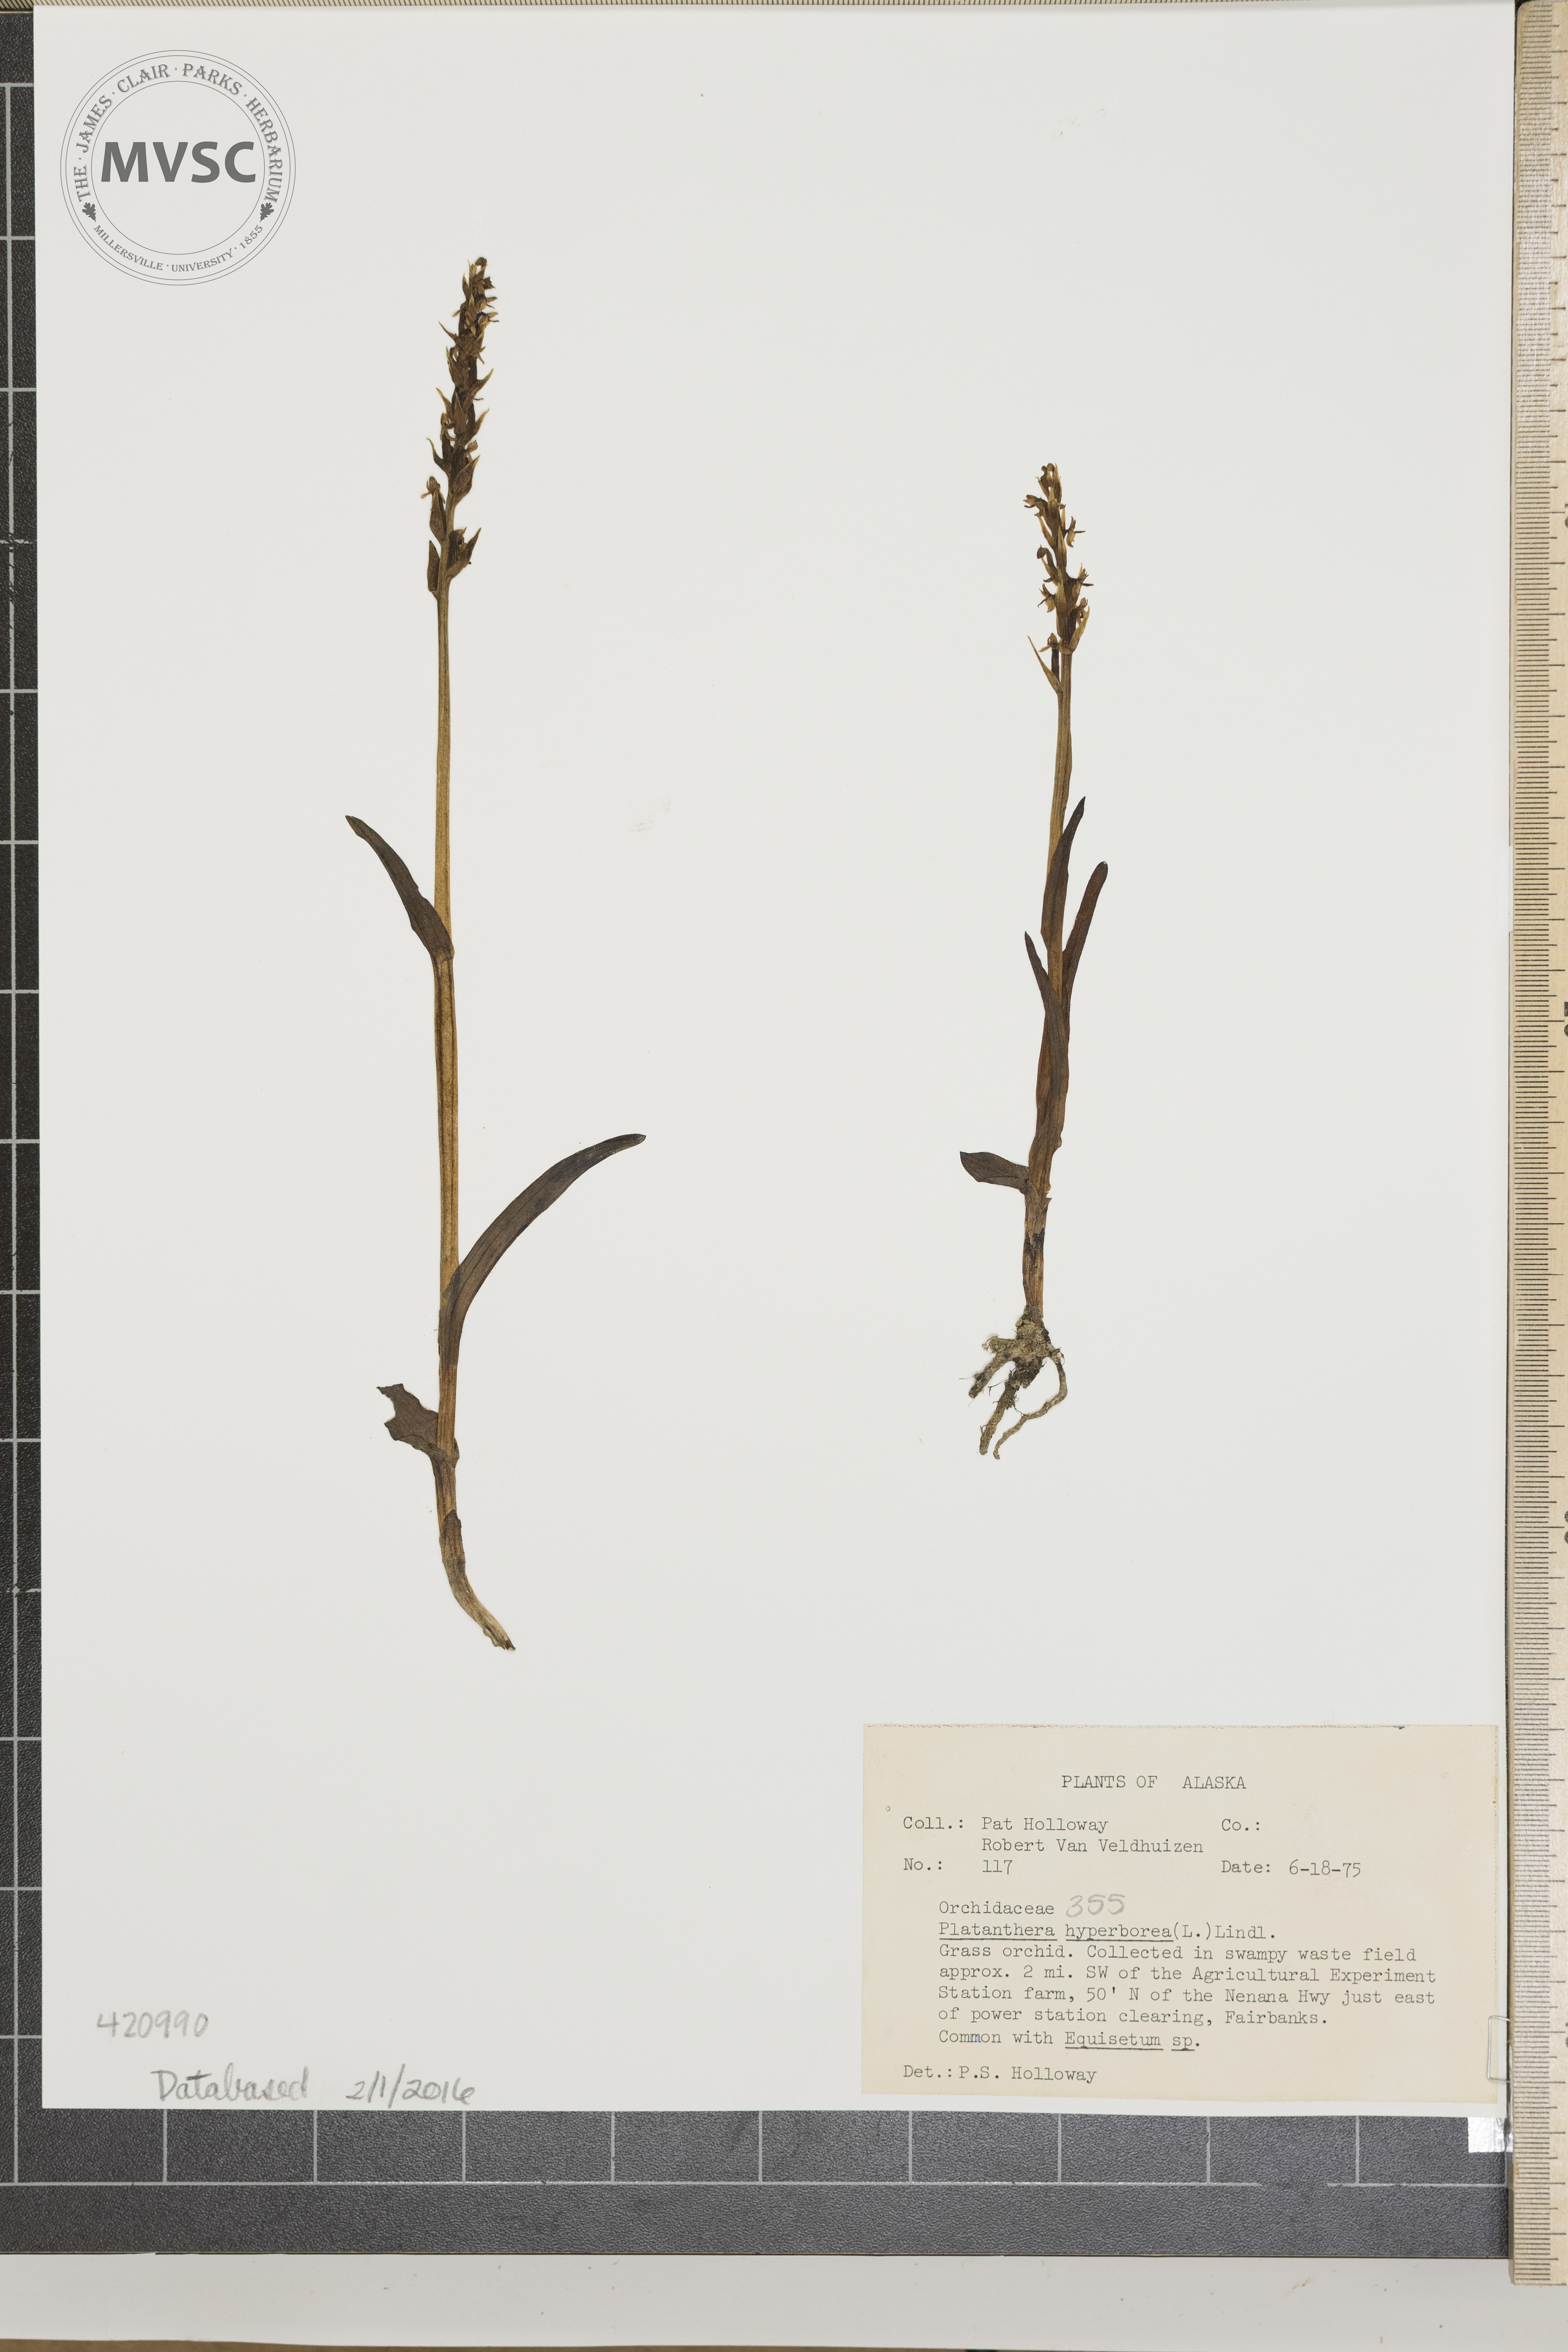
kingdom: Plantae
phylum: Tracheophyta
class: Liliopsida
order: Asparagales
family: Orchidaceae
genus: Platanthera
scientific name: Platanthera hyperborea
